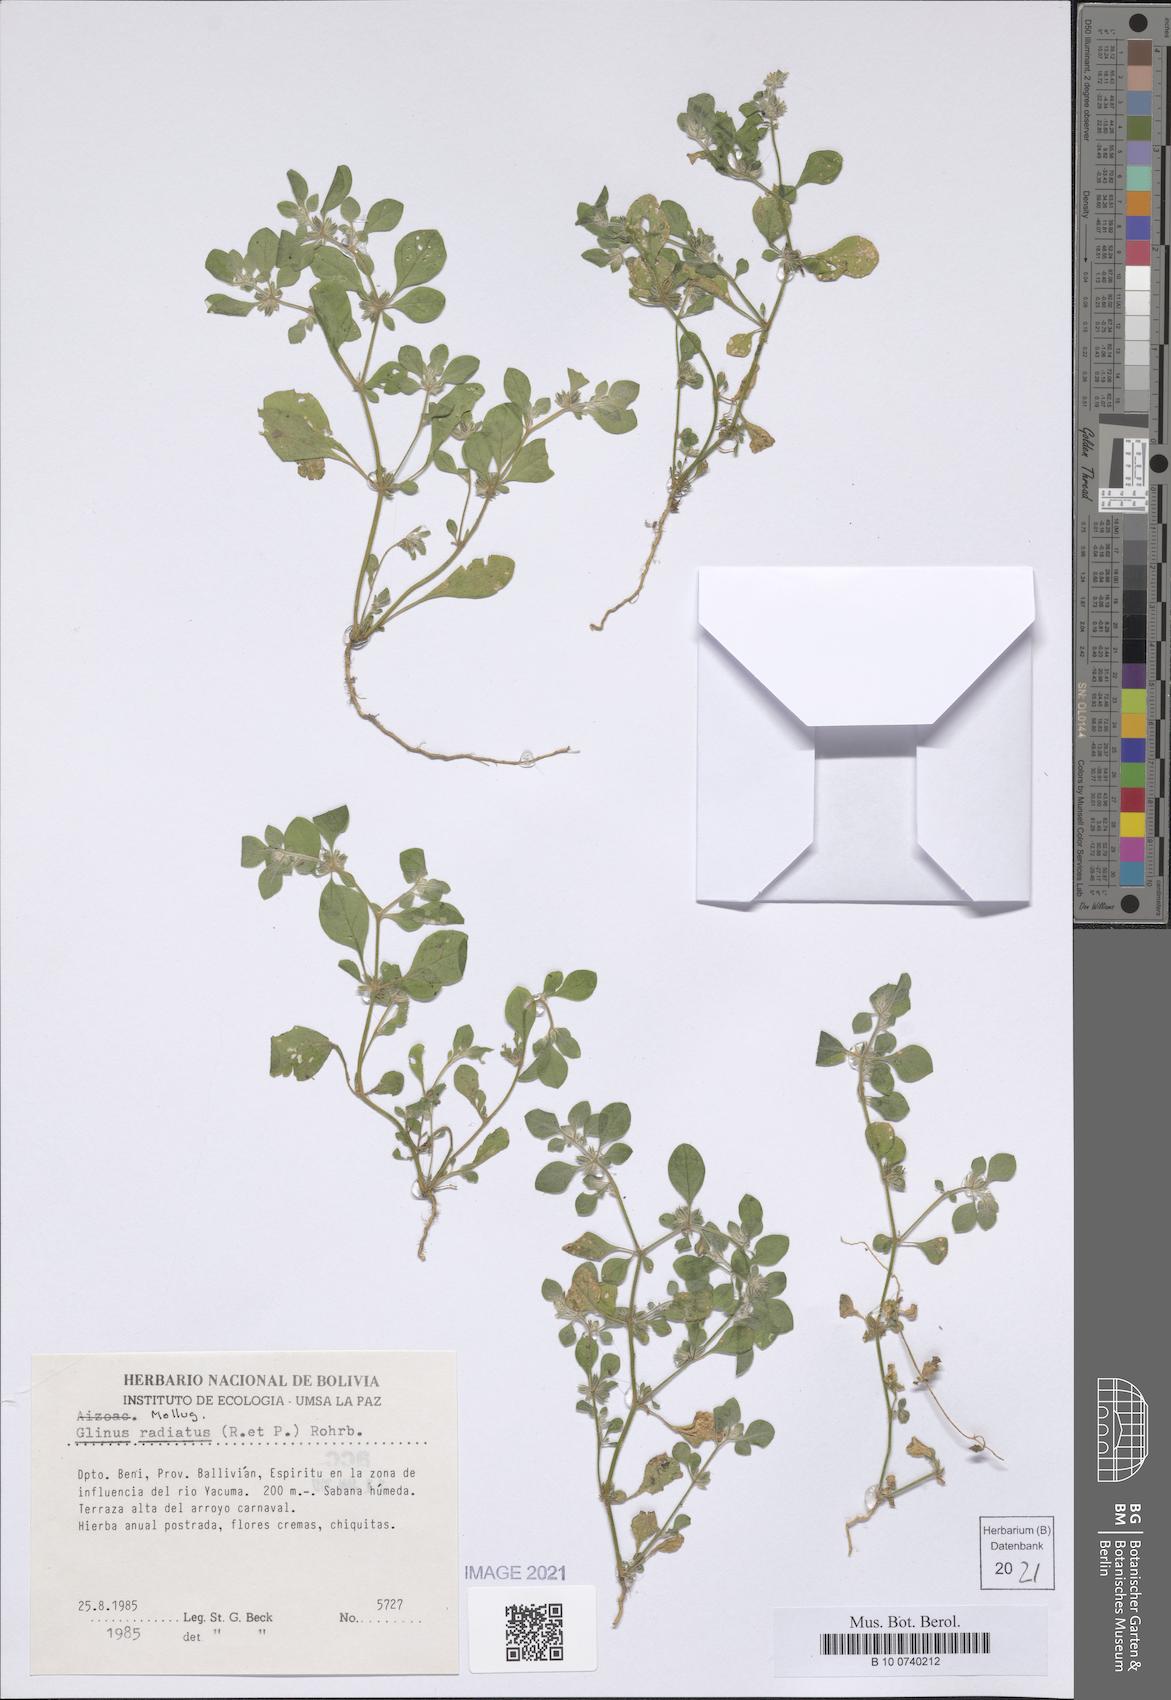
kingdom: Plantae
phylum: Tracheophyta
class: Magnoliopsida
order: Caryophyllales
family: Molluginaceae
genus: Glinus
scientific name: Glinus radiatus
